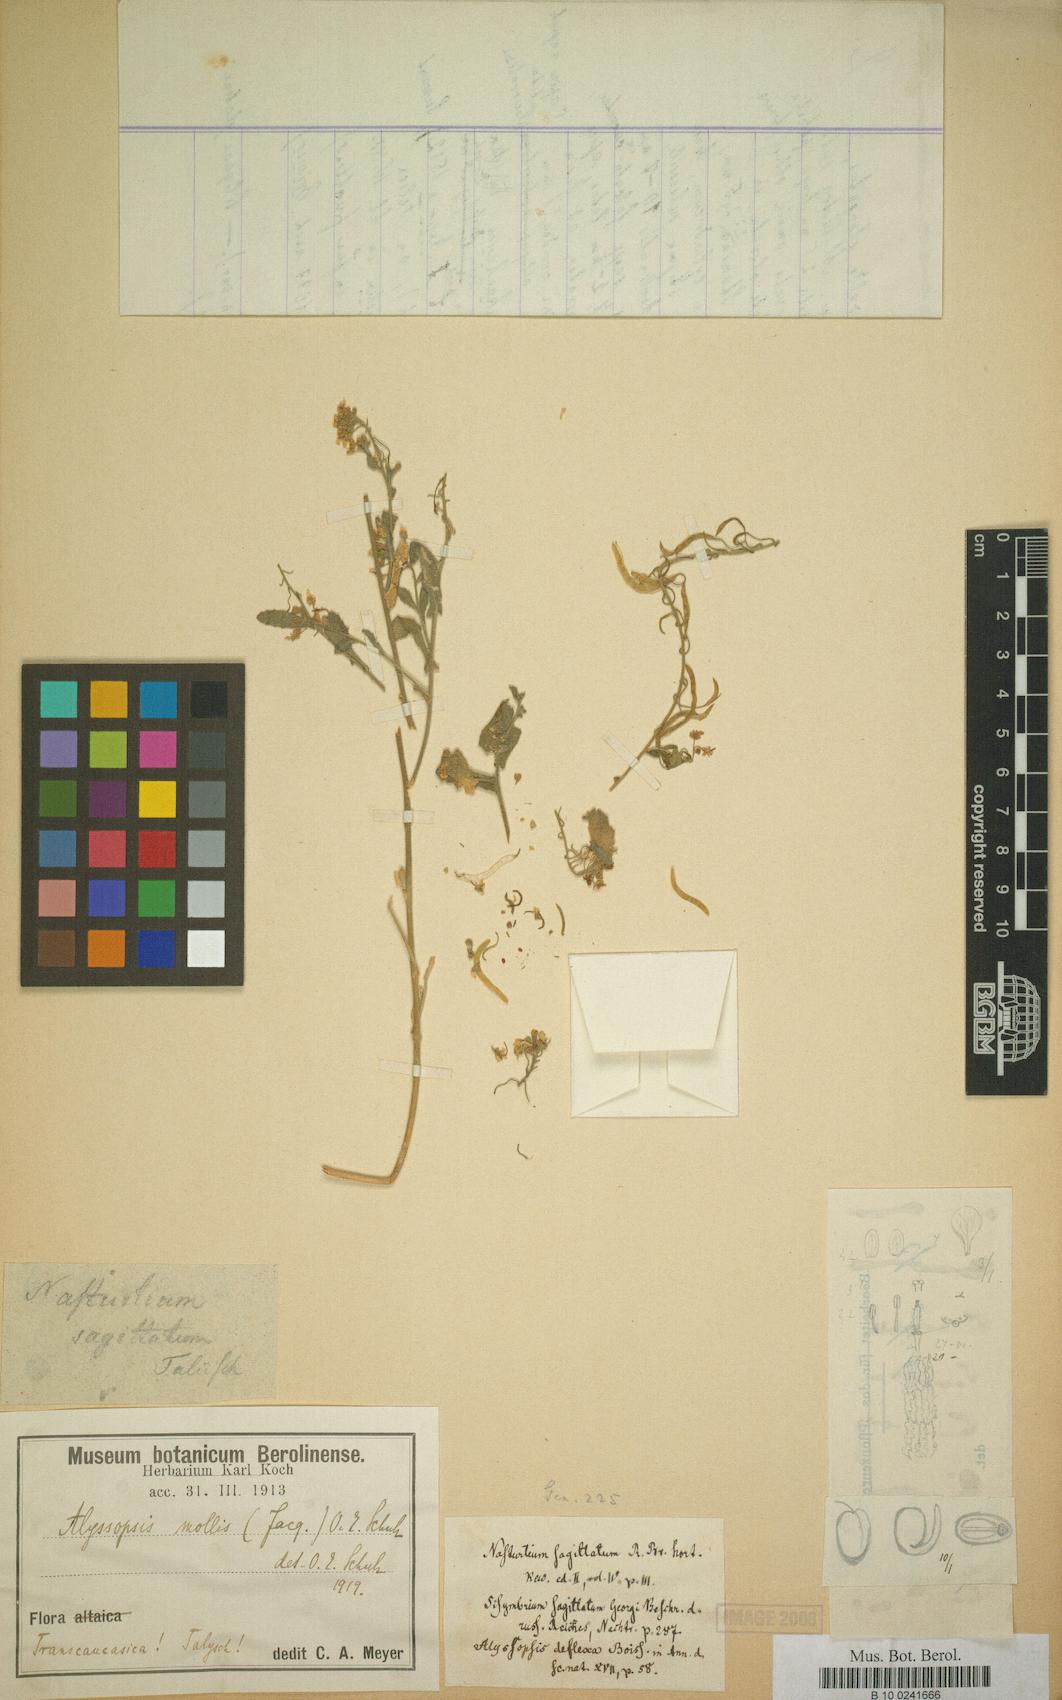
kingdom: Plantae
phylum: Tracheophyta
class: Magnoliopsida
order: Brassicales
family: Brassicaceae
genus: Alyssopsis
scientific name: Alyssopsis mollis
